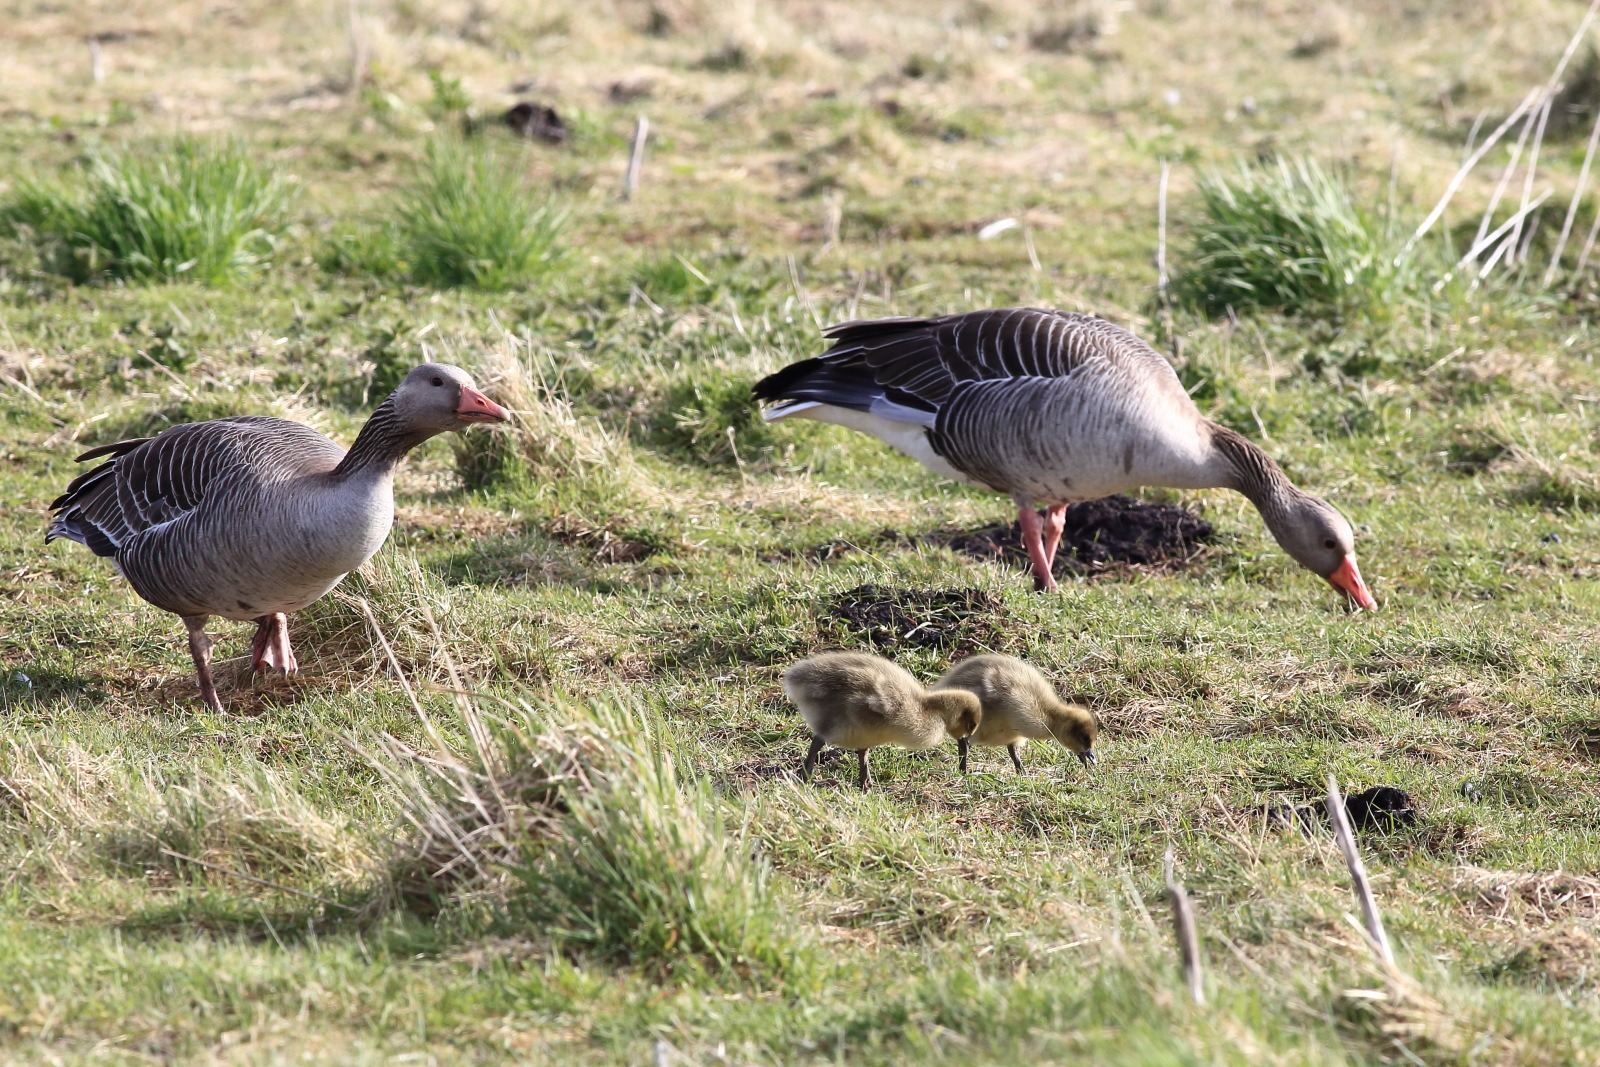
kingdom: Animalia
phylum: Chordata
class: Aves
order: Anseriformes
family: Anatidae
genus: Anser
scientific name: Anser anser
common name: Grågås
